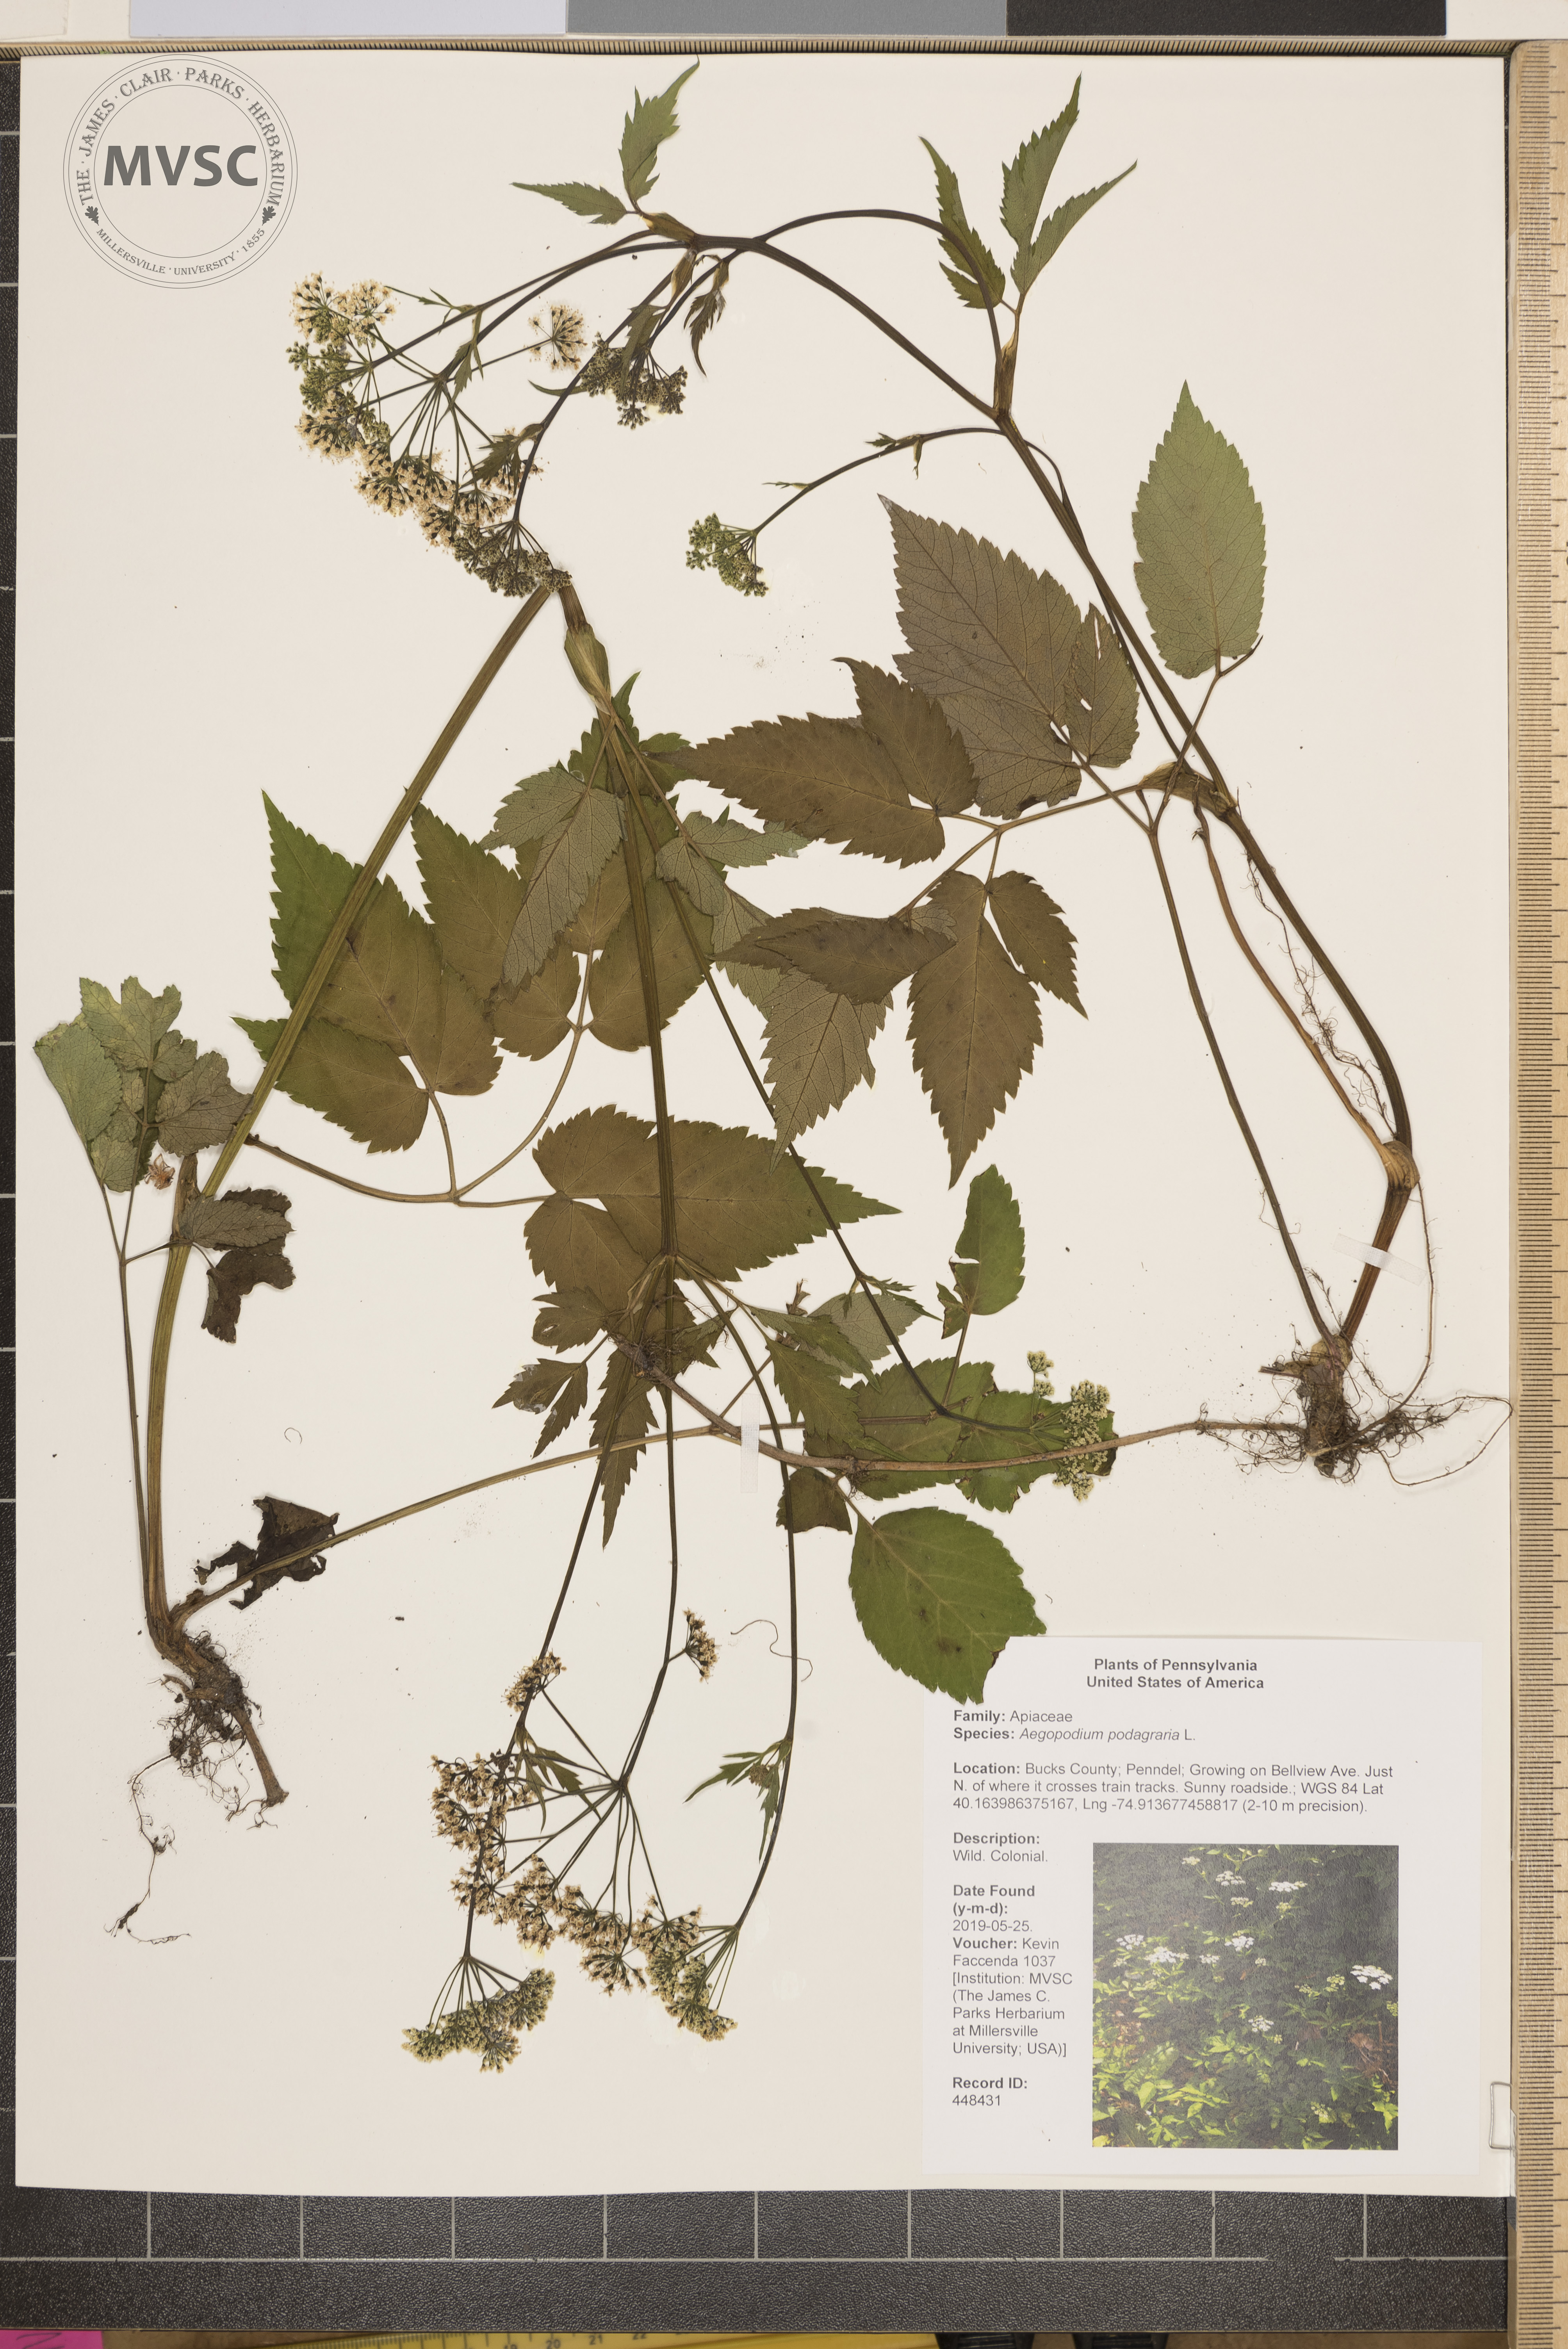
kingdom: Plantae
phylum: Tracheophyta
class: Magnoliopsida
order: Apiales
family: Apiaceae
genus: Aegopodium
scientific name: Aegopodium podagraria
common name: Ground-elder
